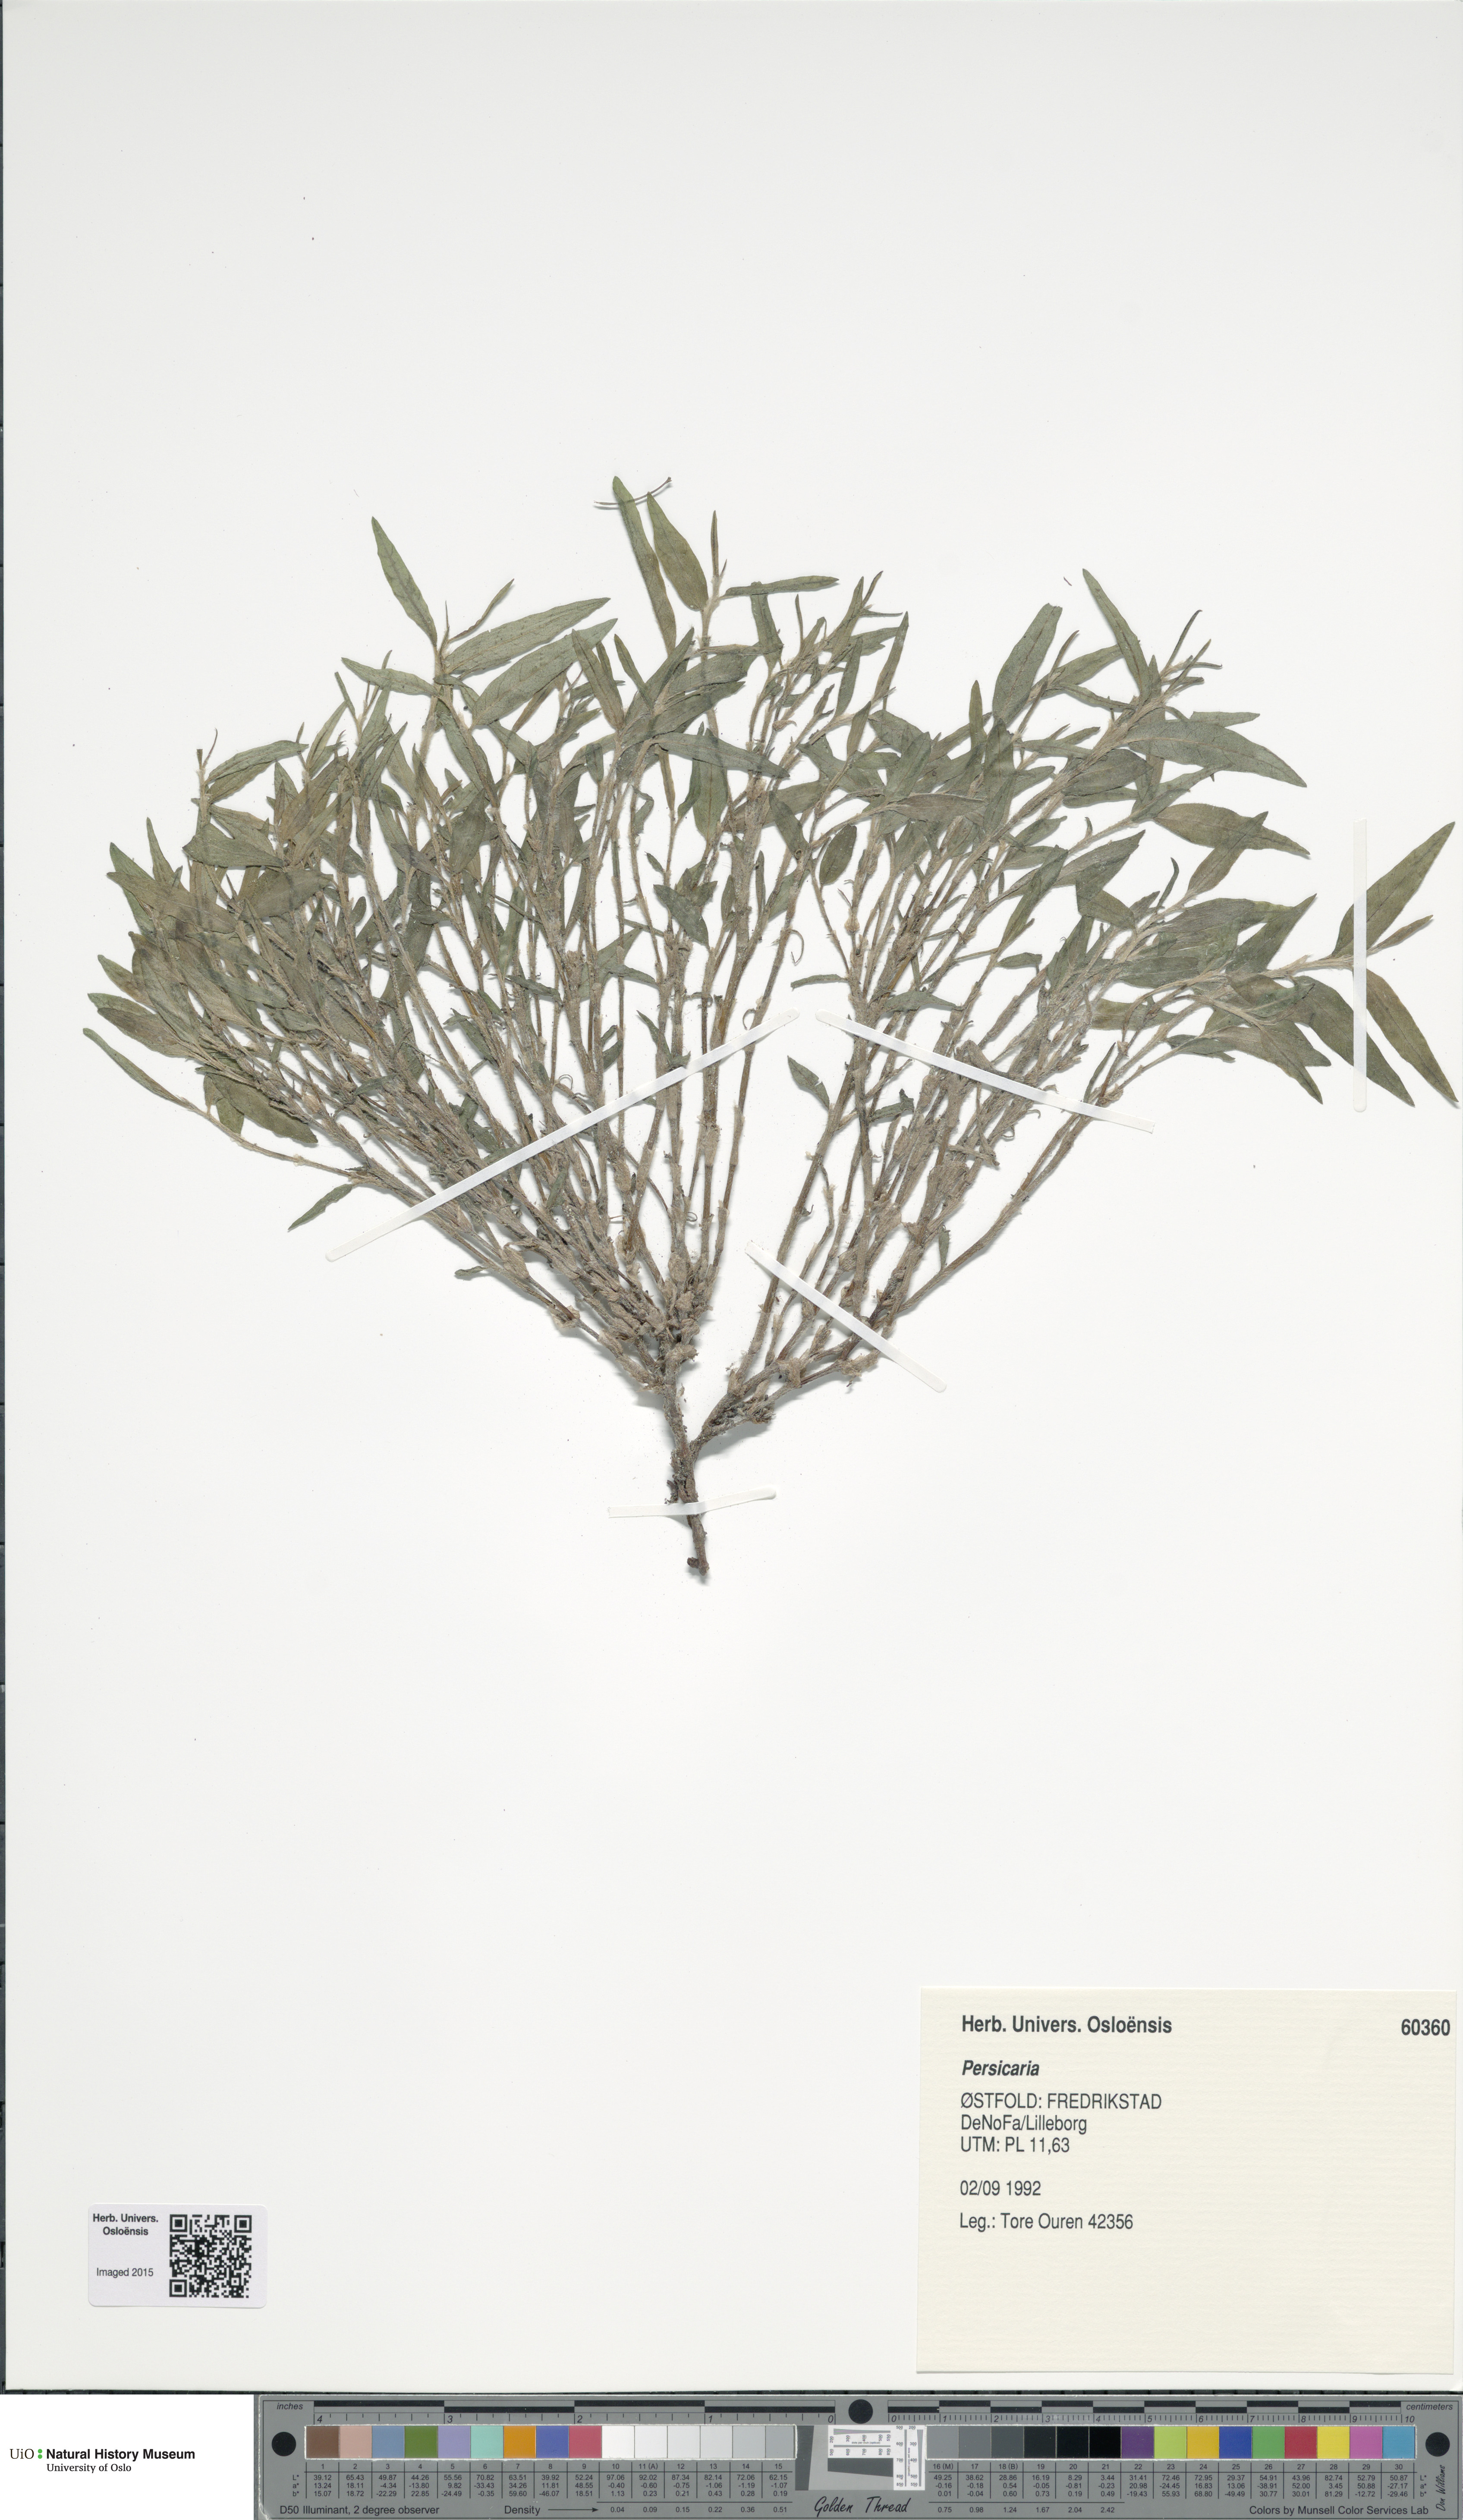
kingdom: Plantae
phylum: Tracheophyta
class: Magnoliopsida
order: Caryophyllales
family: Polygonaceae
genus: Persicaria
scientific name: Persicaria
